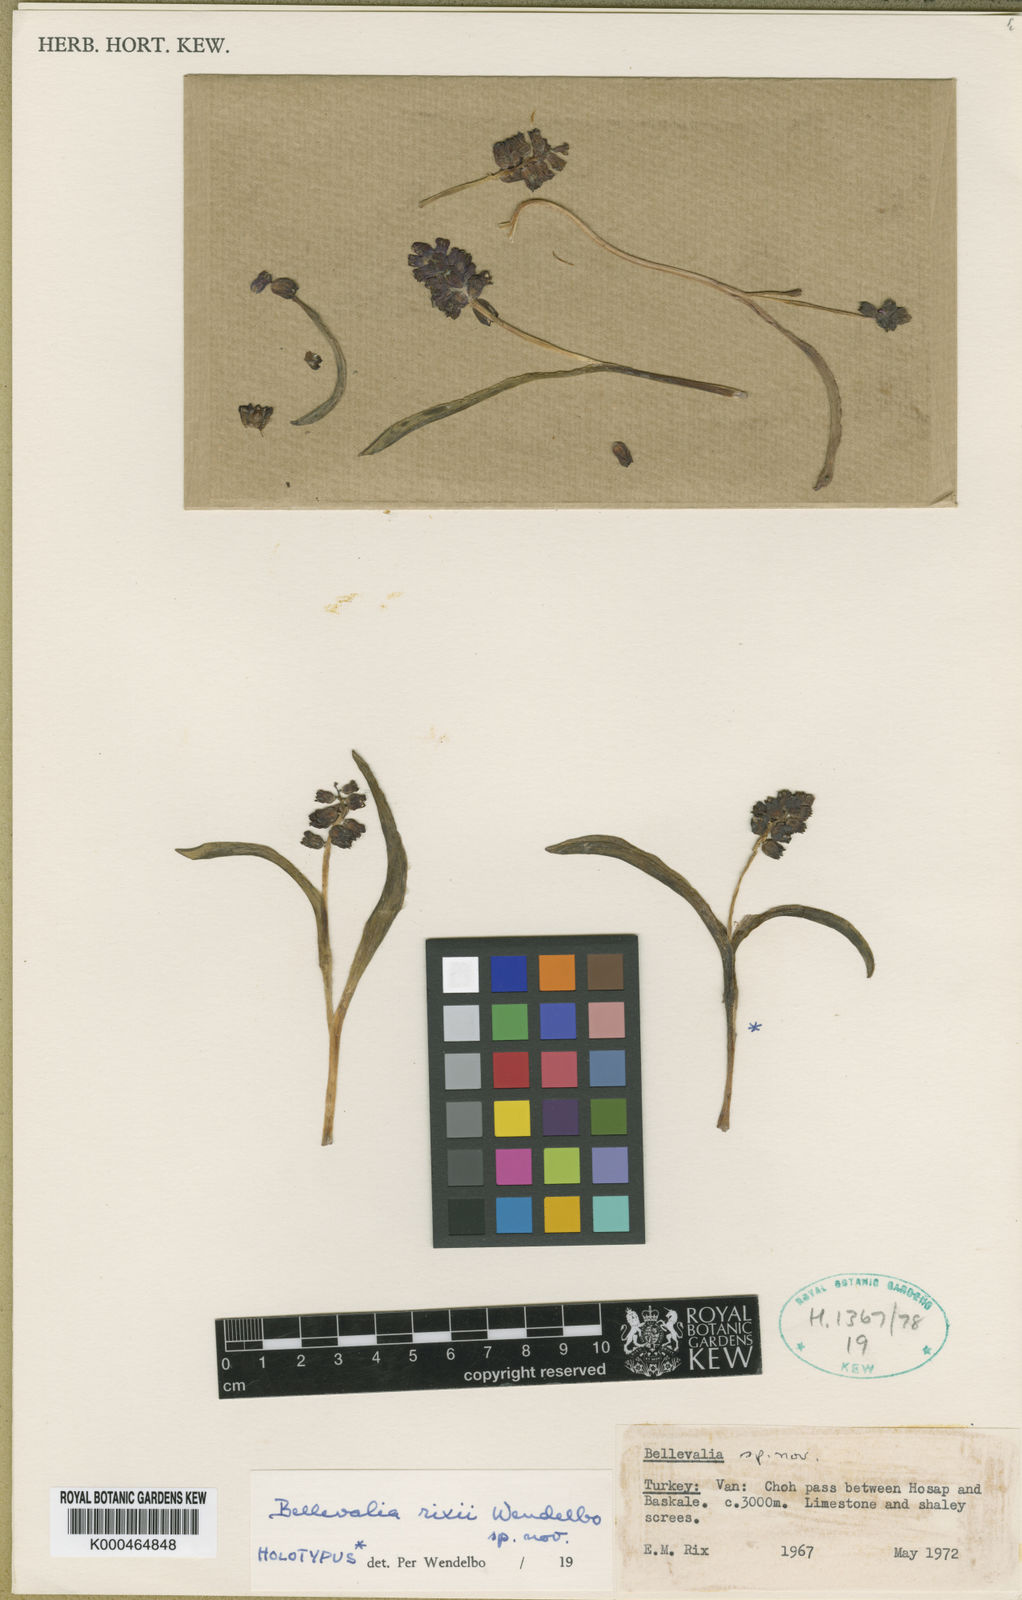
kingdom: Plantae
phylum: Tracheophyta
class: Liliopsida
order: Asparagales
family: Asparagaceae
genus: Bellevalia
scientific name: Bellevalia rixii
